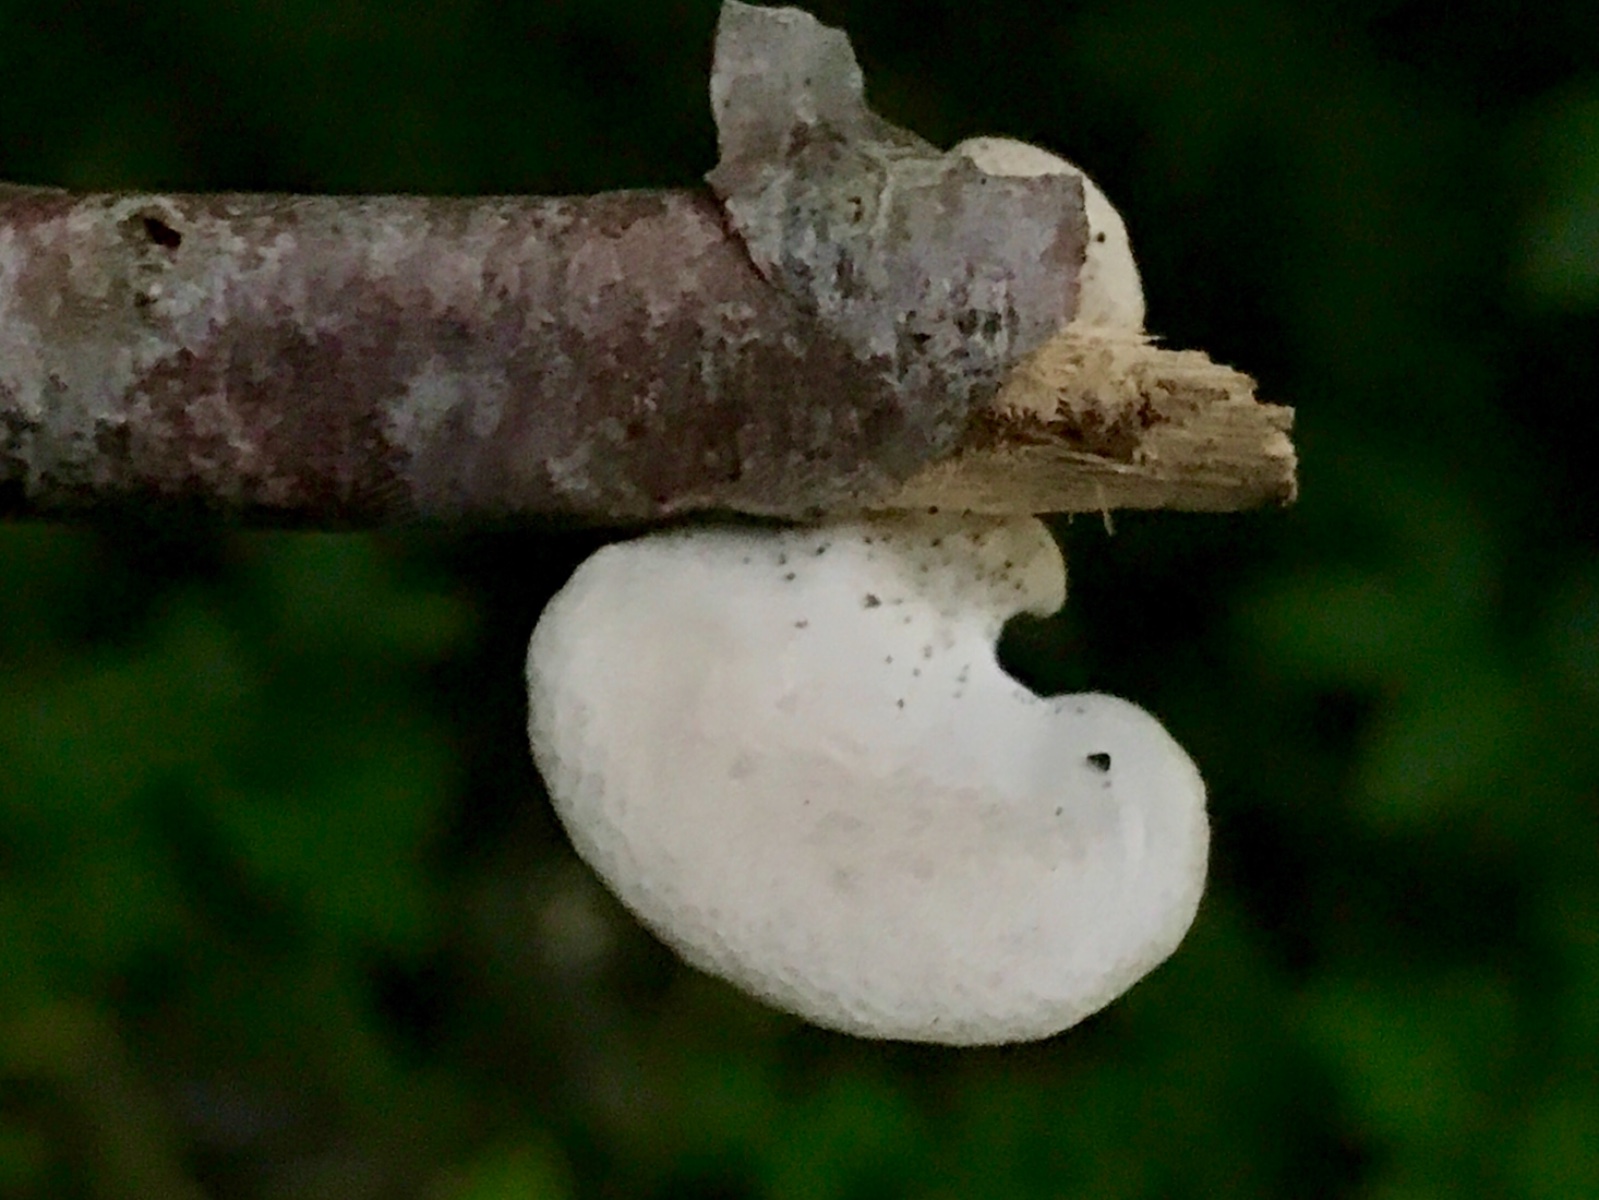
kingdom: Fungi
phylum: Basidiomycota
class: Agaricomycetes
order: Agaricales
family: Pleurotaceae
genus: Pleurotus
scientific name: Pleurotus pulmonarius
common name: sommer-østershat
